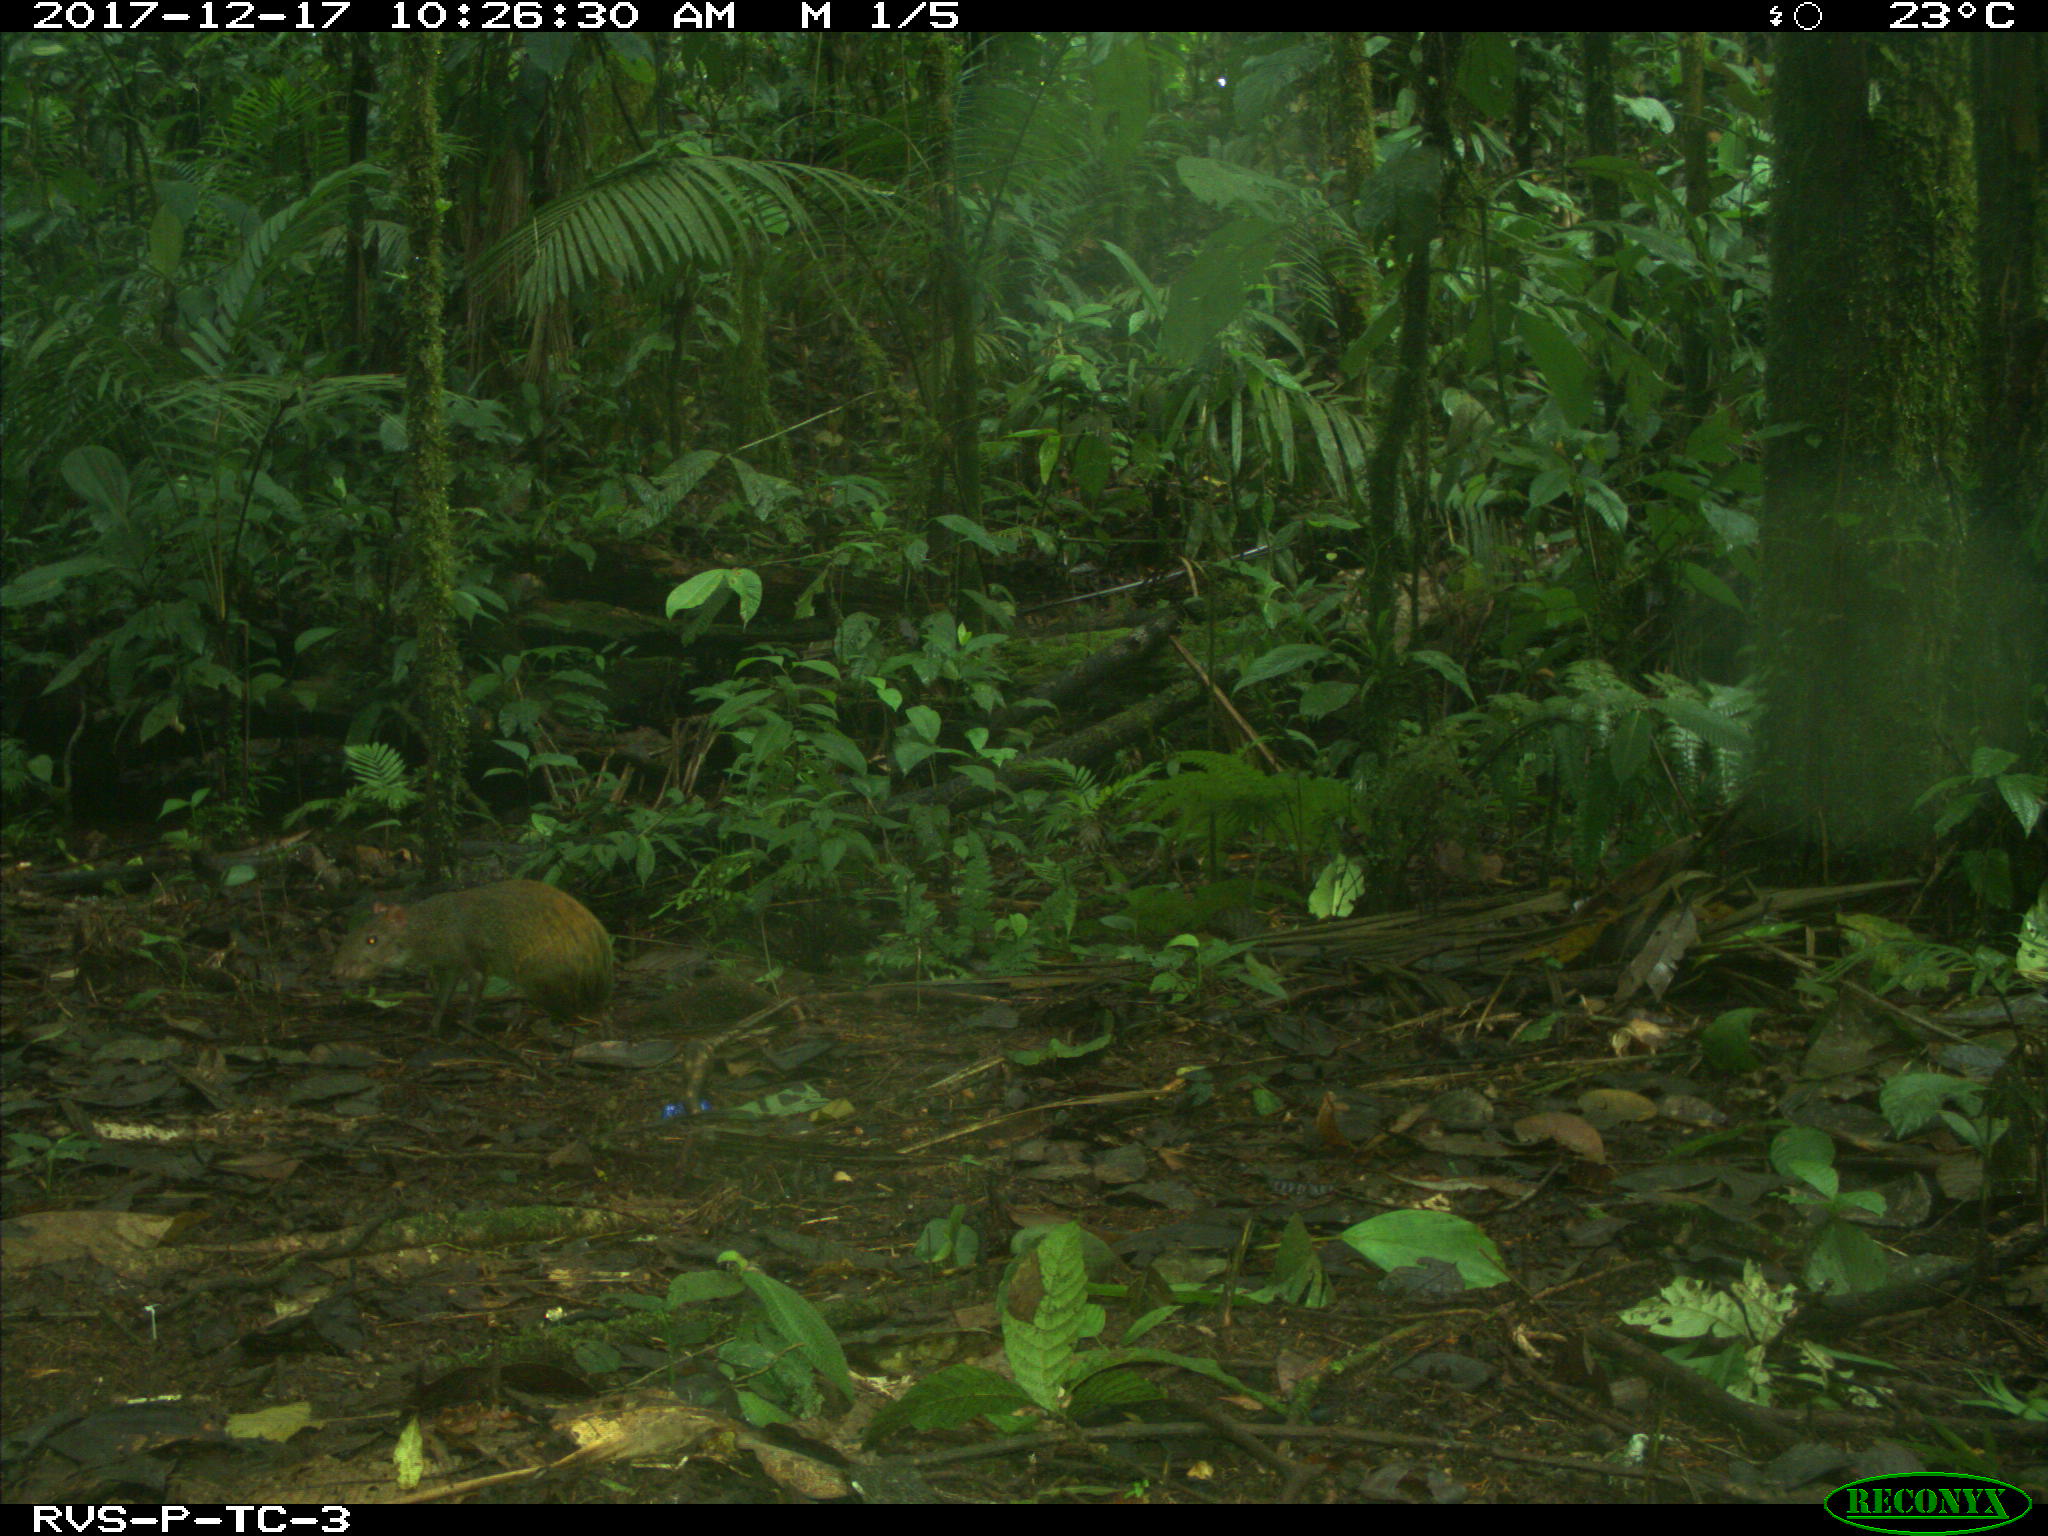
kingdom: Animalia
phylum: Chordata
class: Mammalia
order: Rodentia
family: Dasyproctidae
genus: Dasyprocta
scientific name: Dasyprocta punctata
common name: Central american agouti
